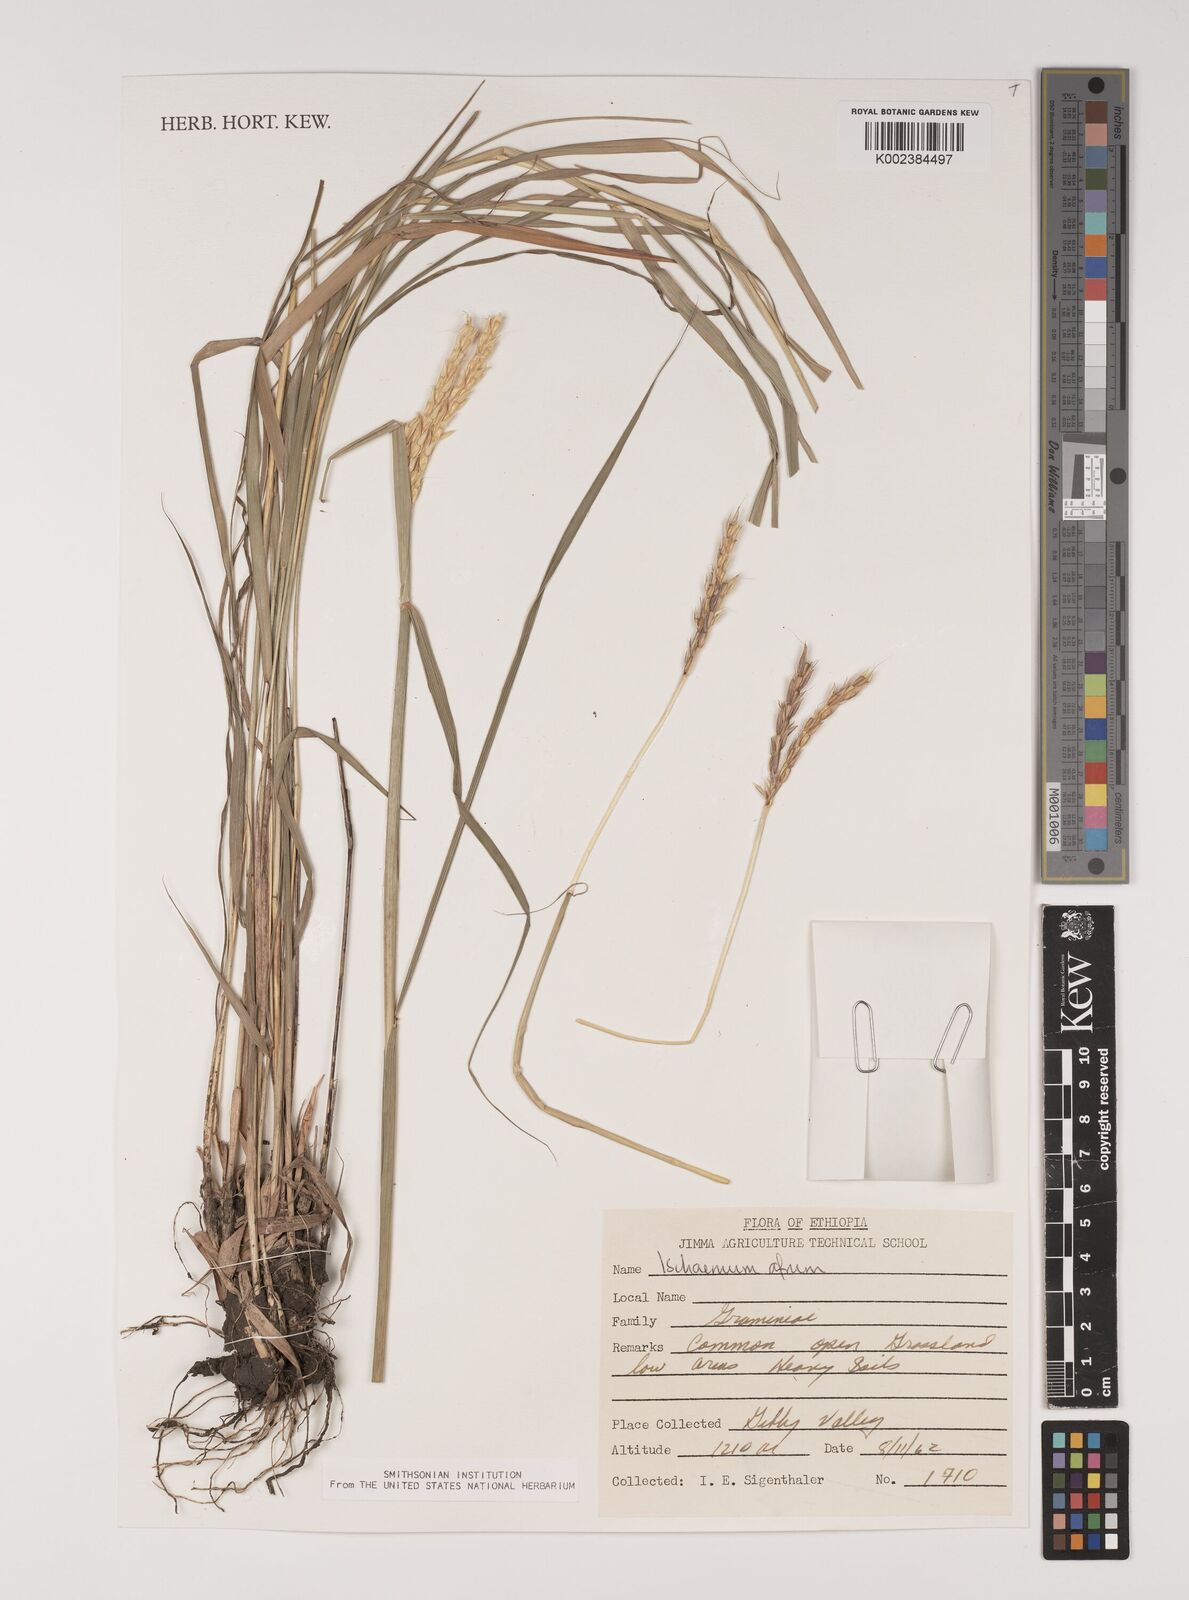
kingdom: Plantae
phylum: Tracheophyta
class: Liliopsida
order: Poales
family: Poaceae
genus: Ischaemum
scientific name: Ischaemum afrum
